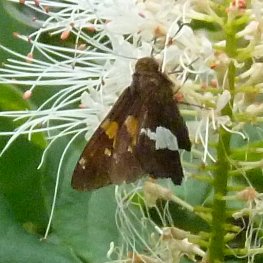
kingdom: Animalia
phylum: Arthropoda
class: Insecta
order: Lepidoptera
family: Hesperiidae
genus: Epargyreus
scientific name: Epargyreus clarus
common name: Silver-spotted Skipper
